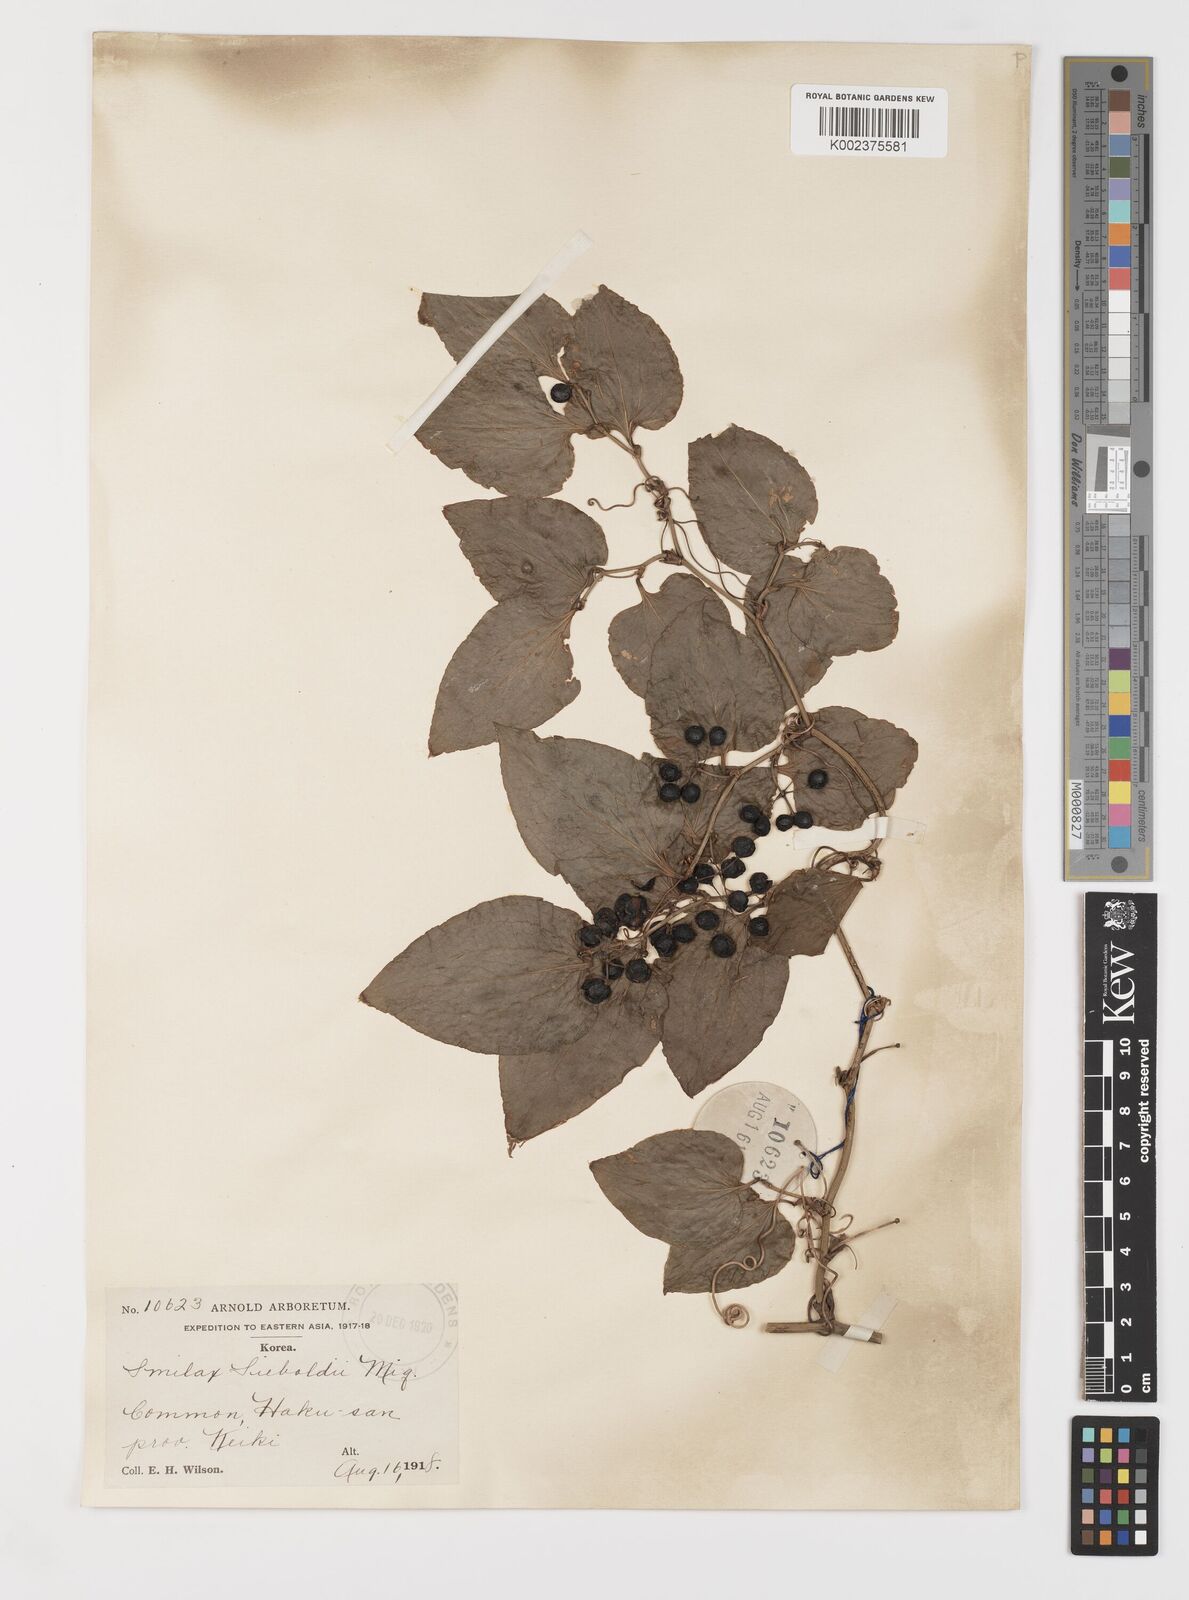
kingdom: Plantae
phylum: Tracheophyta
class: Liliopsida
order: Liliales
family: Smilacaceae
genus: Smilax
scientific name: Smilax sieboldii
